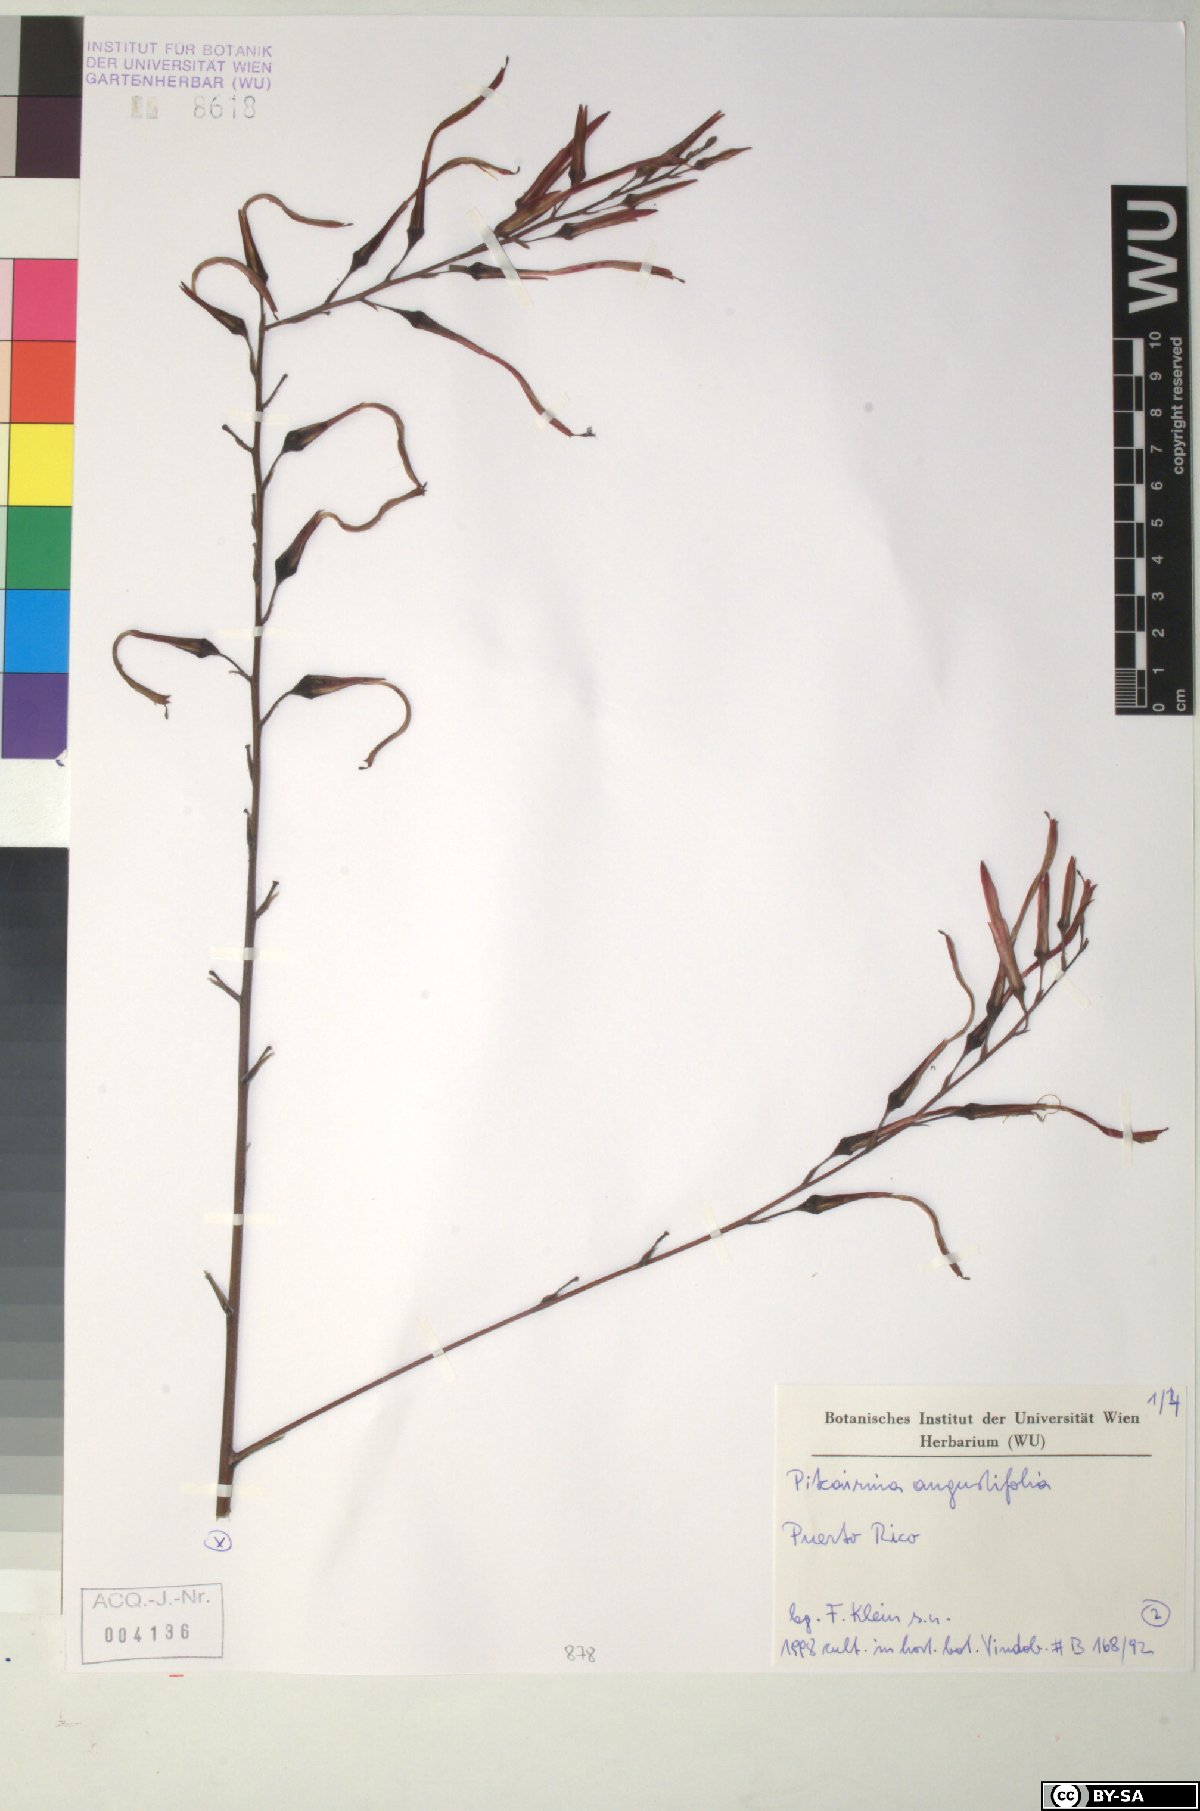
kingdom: Plantae
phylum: Tracheophyta
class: Liliopsida
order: Poales
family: Bromeliaceae
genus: Pitcairnia
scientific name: Pitcairnia angustifolia
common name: Clapper
